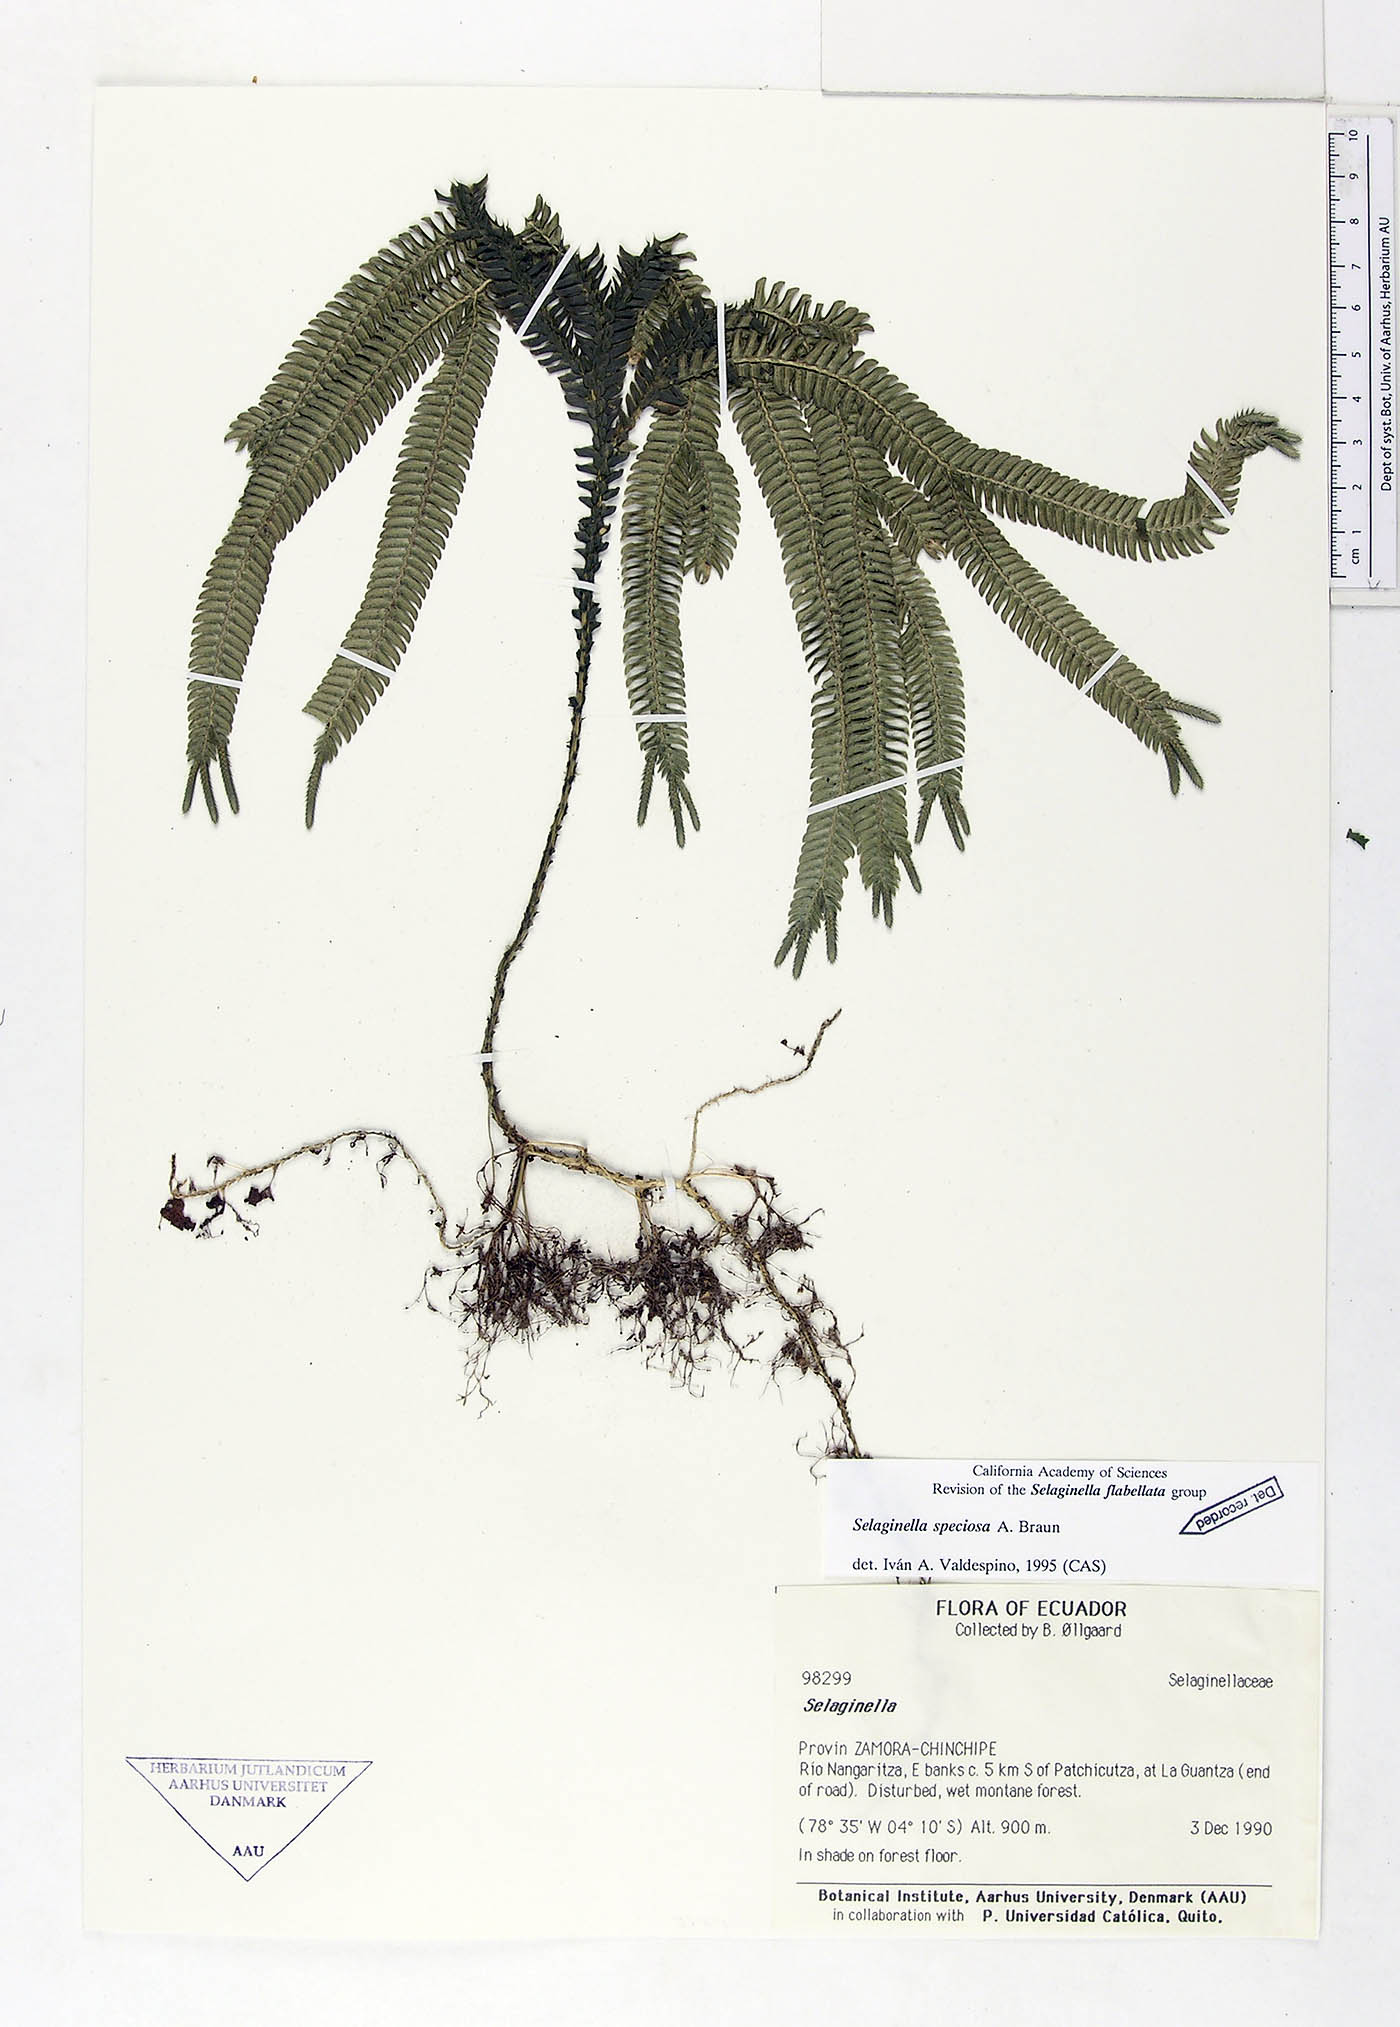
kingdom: Plantae
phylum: Tracheophyta
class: Lycopodiopsida
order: Selaginellales
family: Selaginellaceae
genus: Selaginella
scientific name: Selaginella speciosa
